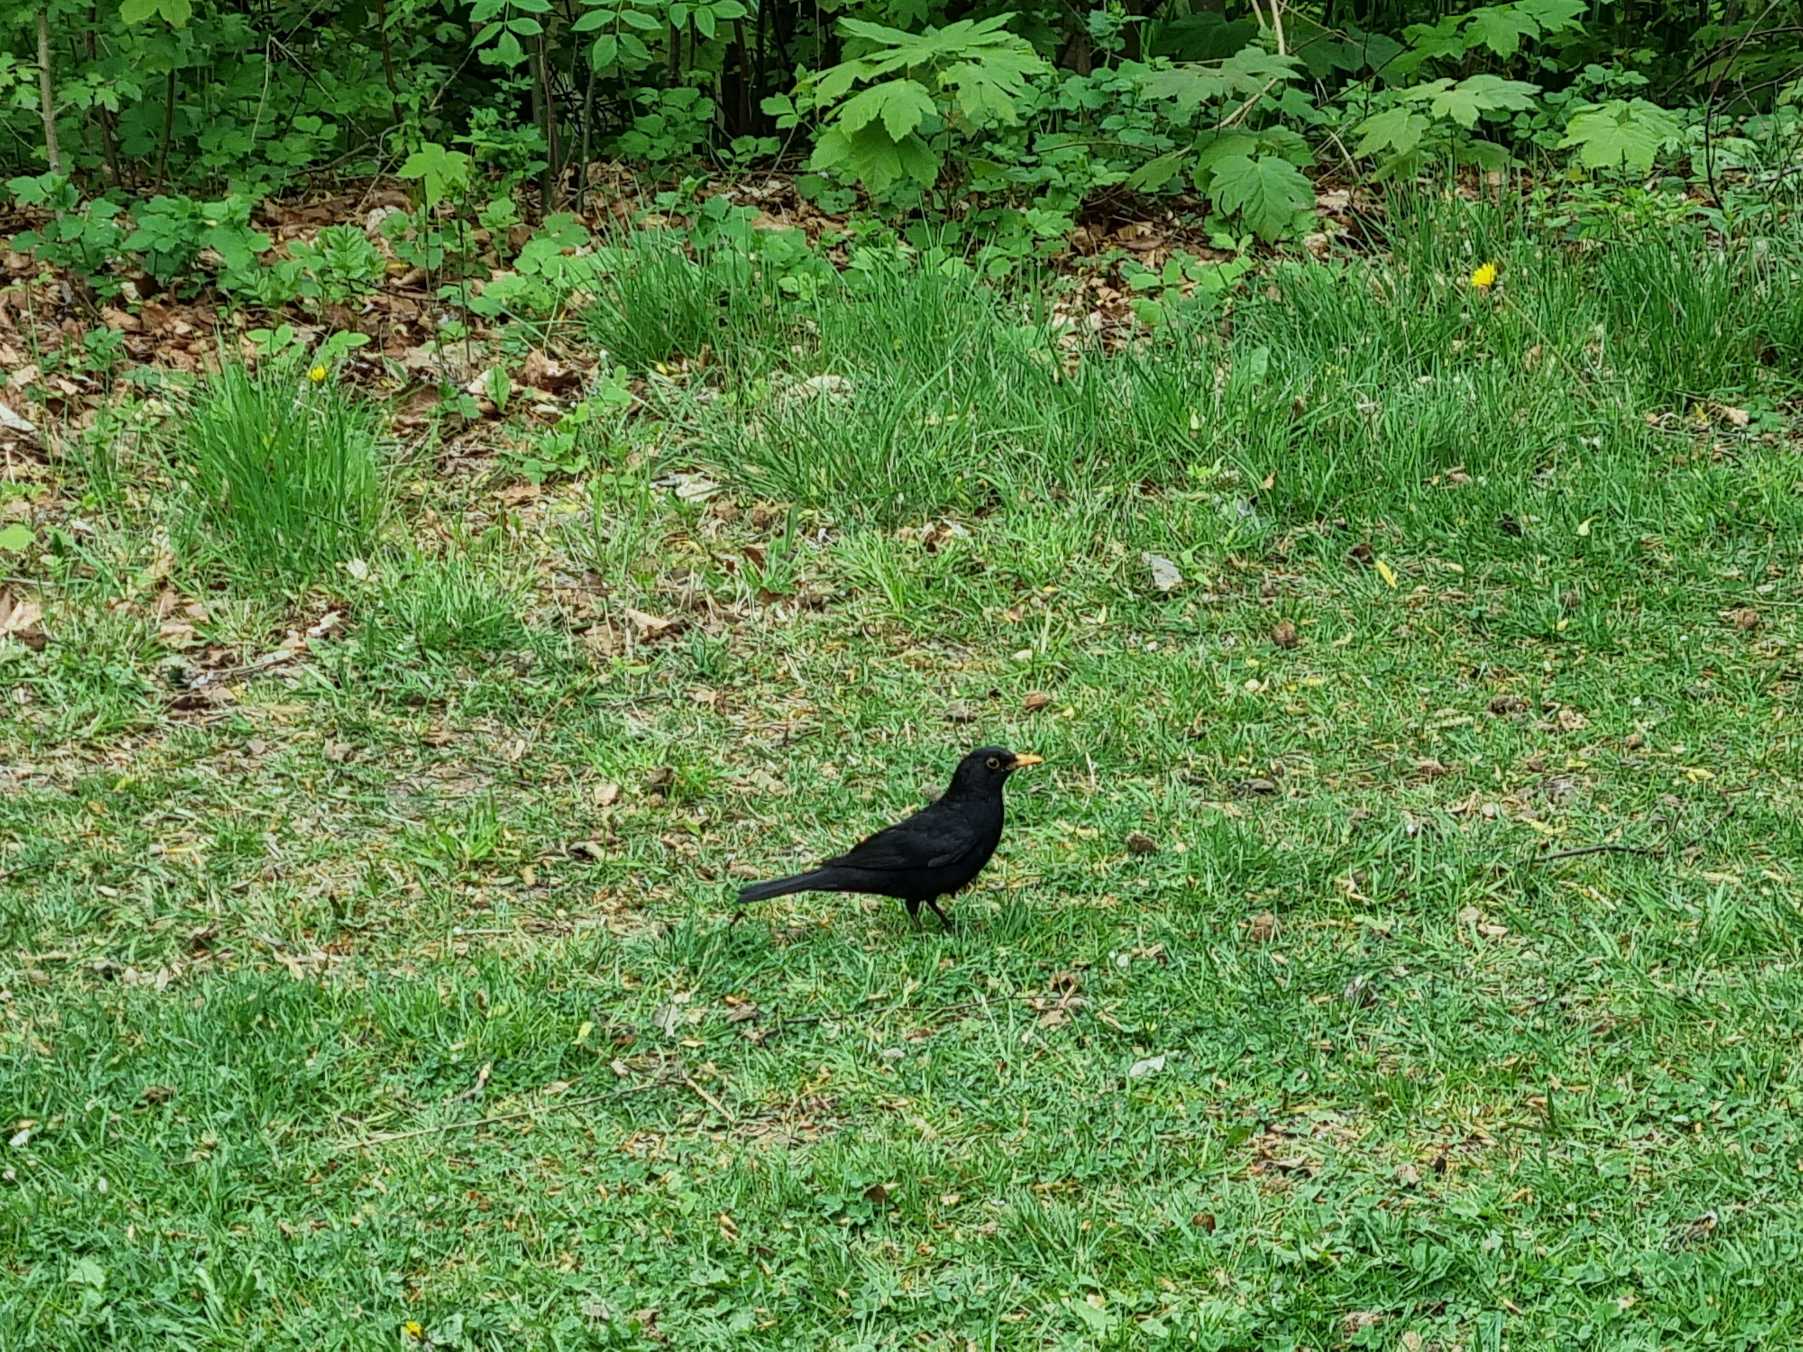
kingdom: Animalia
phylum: Chordata
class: Aves
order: Passeriformes
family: Turdidae
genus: Turdus
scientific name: Turdus merula
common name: Solsort
